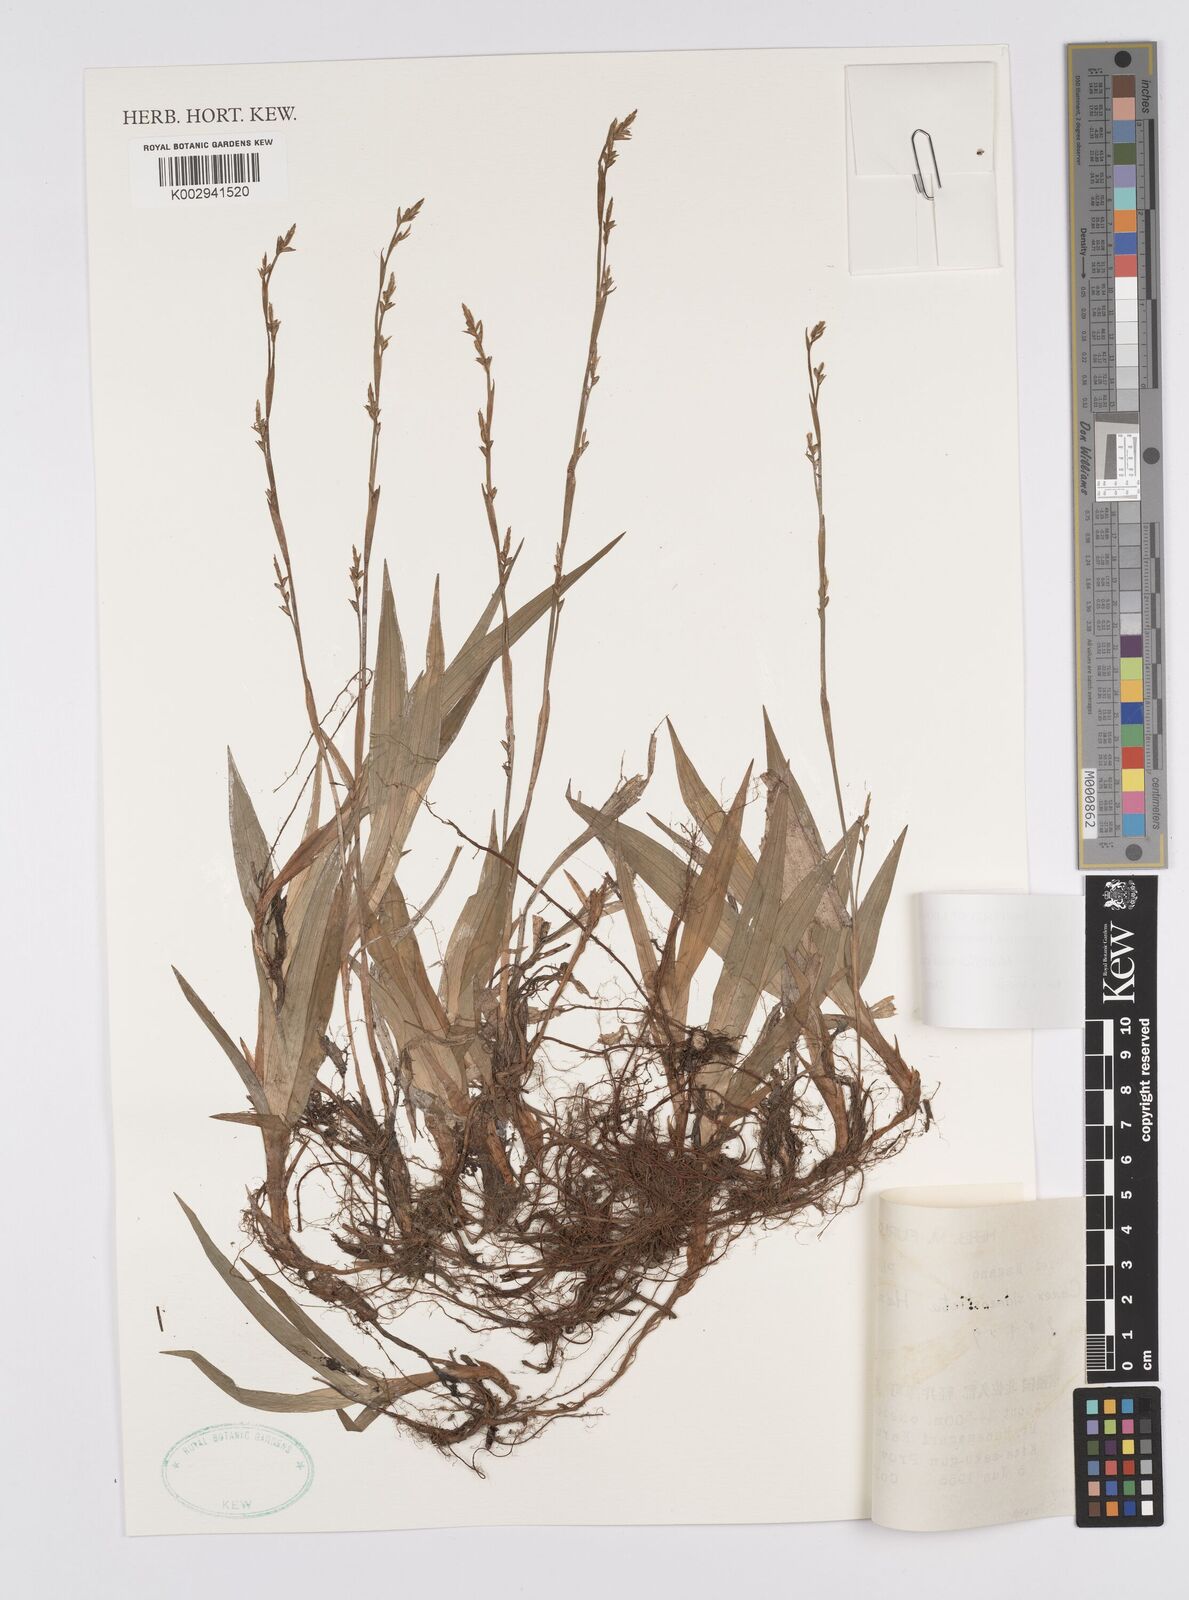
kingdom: Plantae
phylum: Tracheophyta
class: Liliopsida
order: Poales
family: Cyperaceae
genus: Carex
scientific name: Carex siderosticta
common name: Broadleaf sedge
